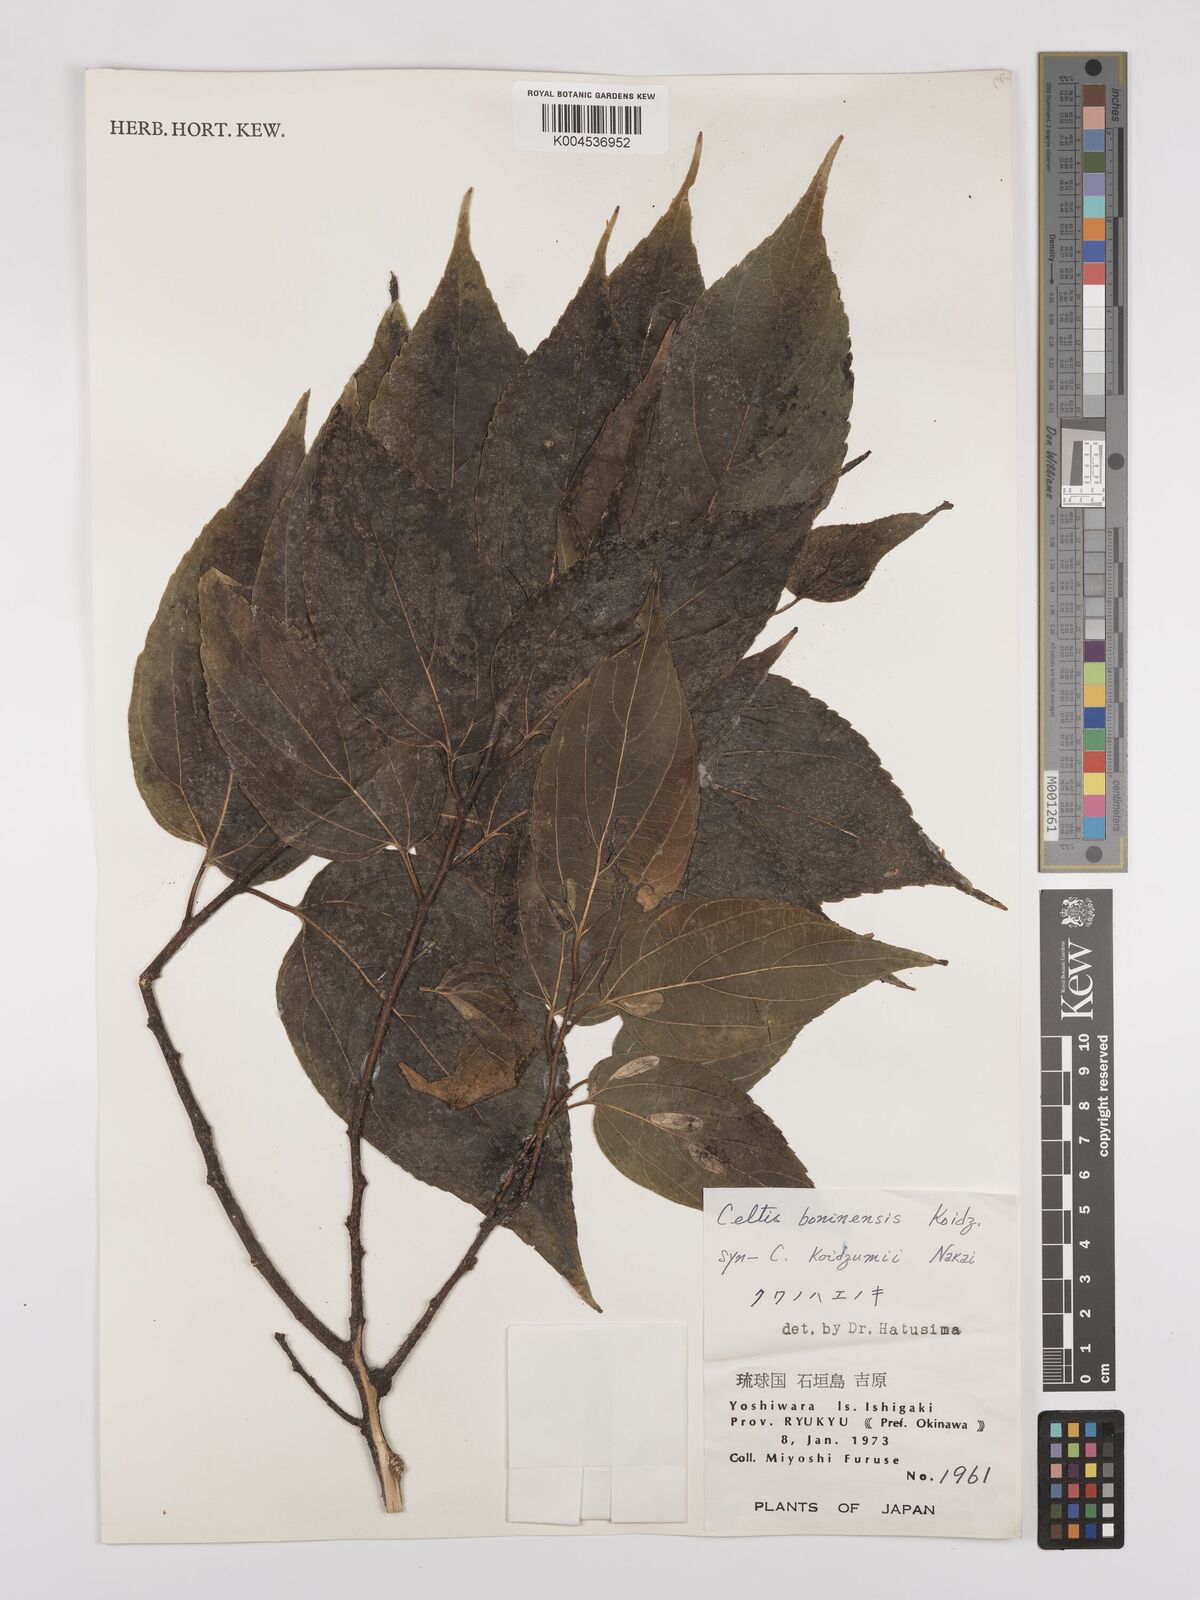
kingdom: Plantae
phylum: Tracheophyta
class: Magnoliopsida
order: Rosales
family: Cannabaceae
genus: Celtis
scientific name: Celtis boninensis
